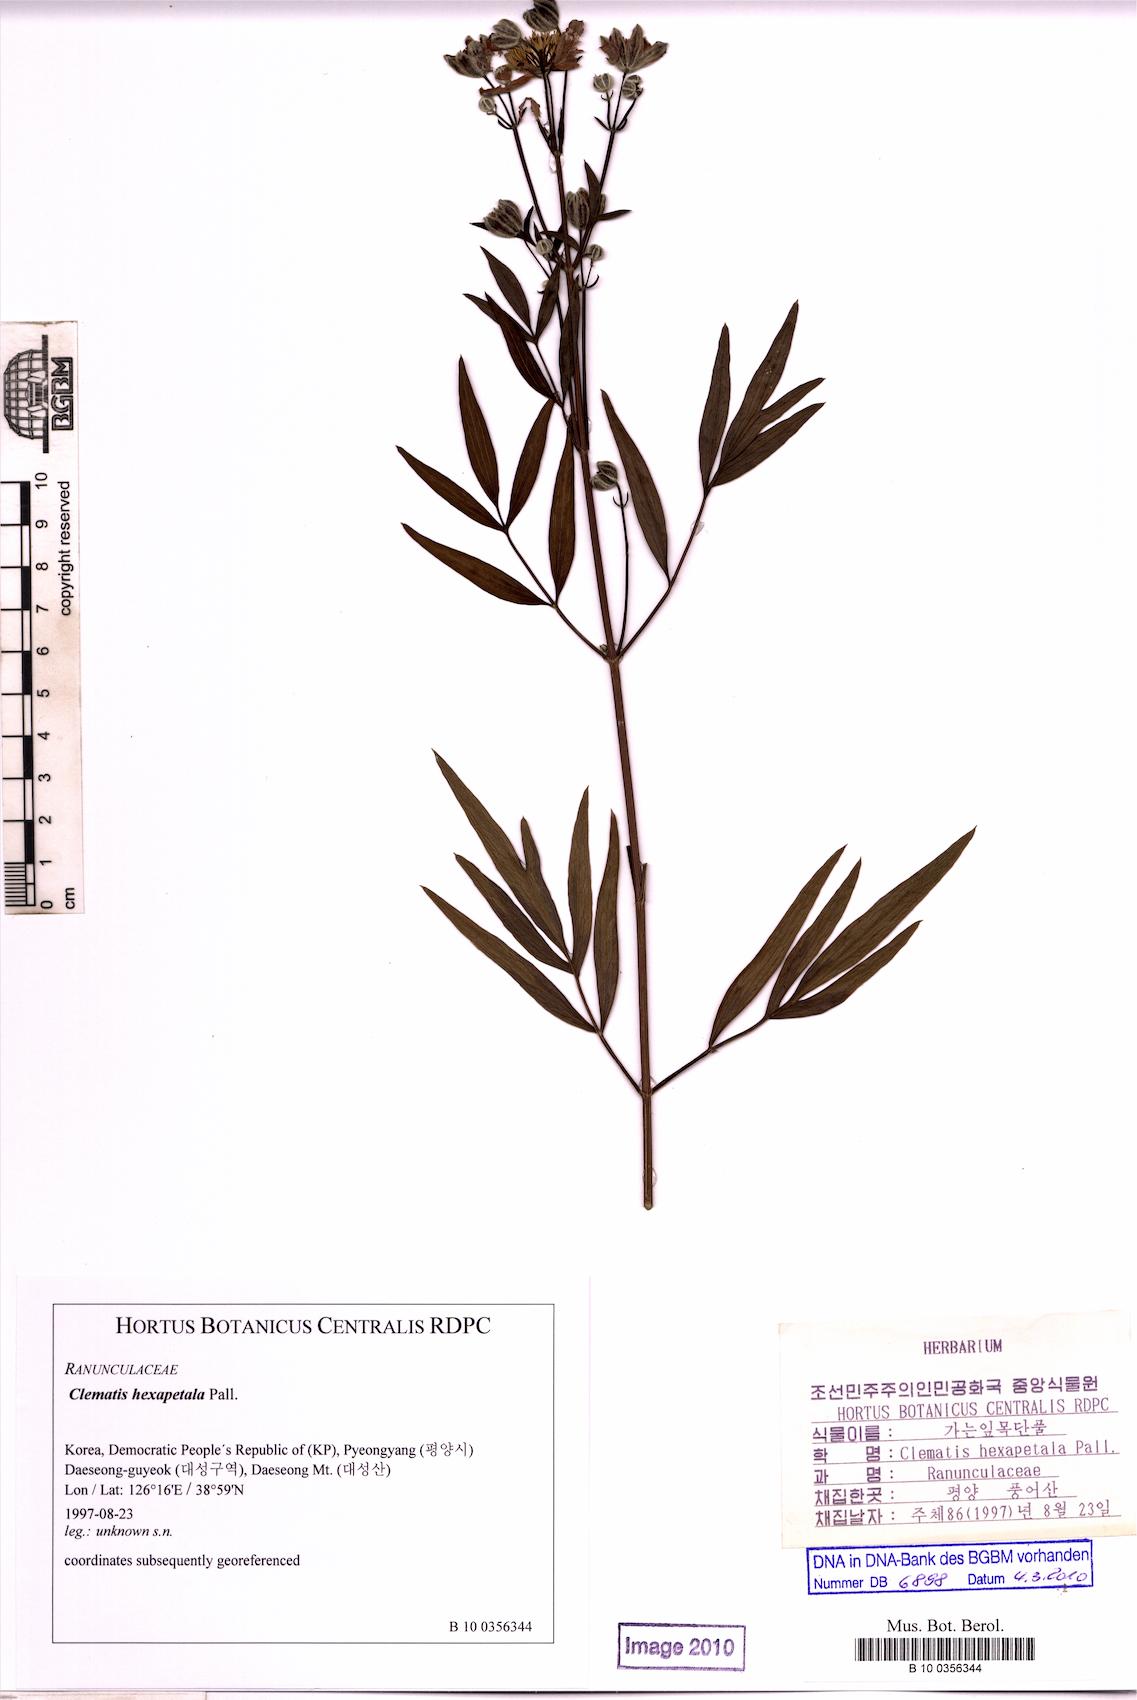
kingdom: Plantae
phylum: Tracheophyta
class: Magnoliopsida
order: Ranunculales
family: Ranunculaceae
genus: Clematis
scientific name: Clematis hexapetala
